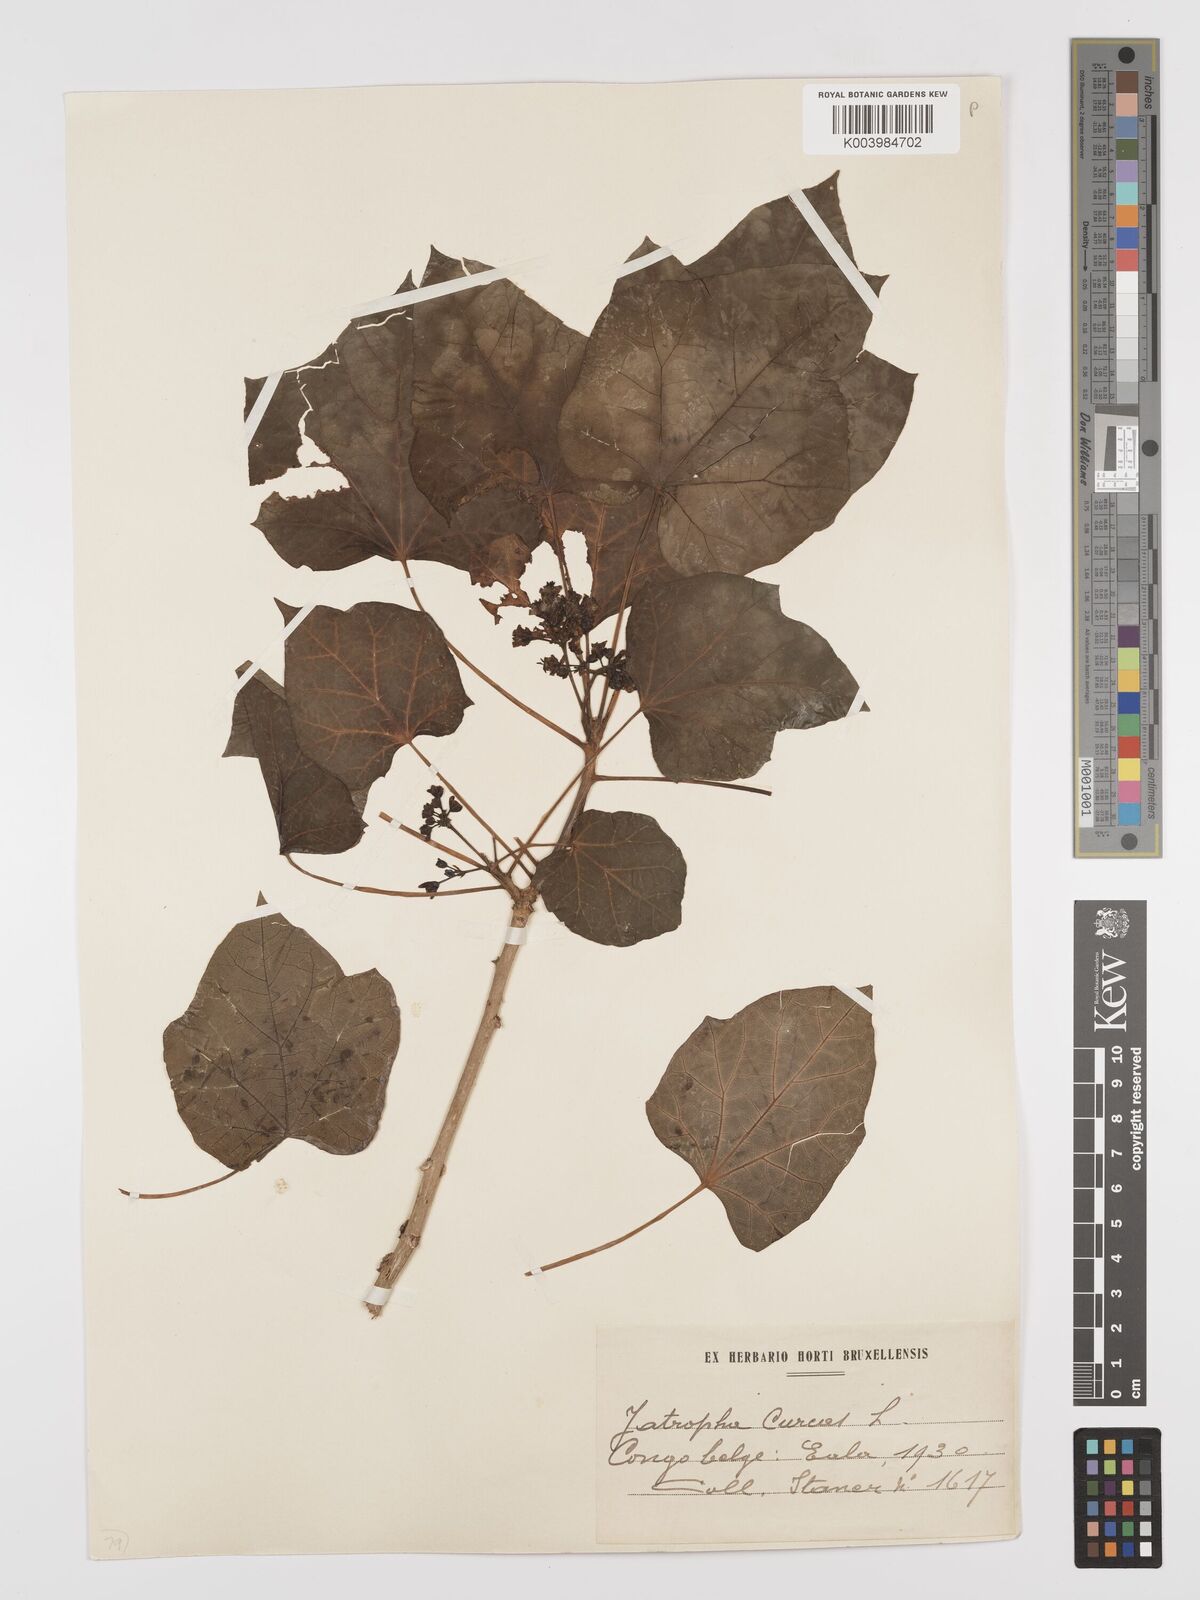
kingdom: Plantae
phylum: Tracheophyta
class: Magnoliopsida
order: Malpighiales
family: Euphorbiaceae
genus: Jatropha
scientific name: Jatropha curcas
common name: Barbados nut
